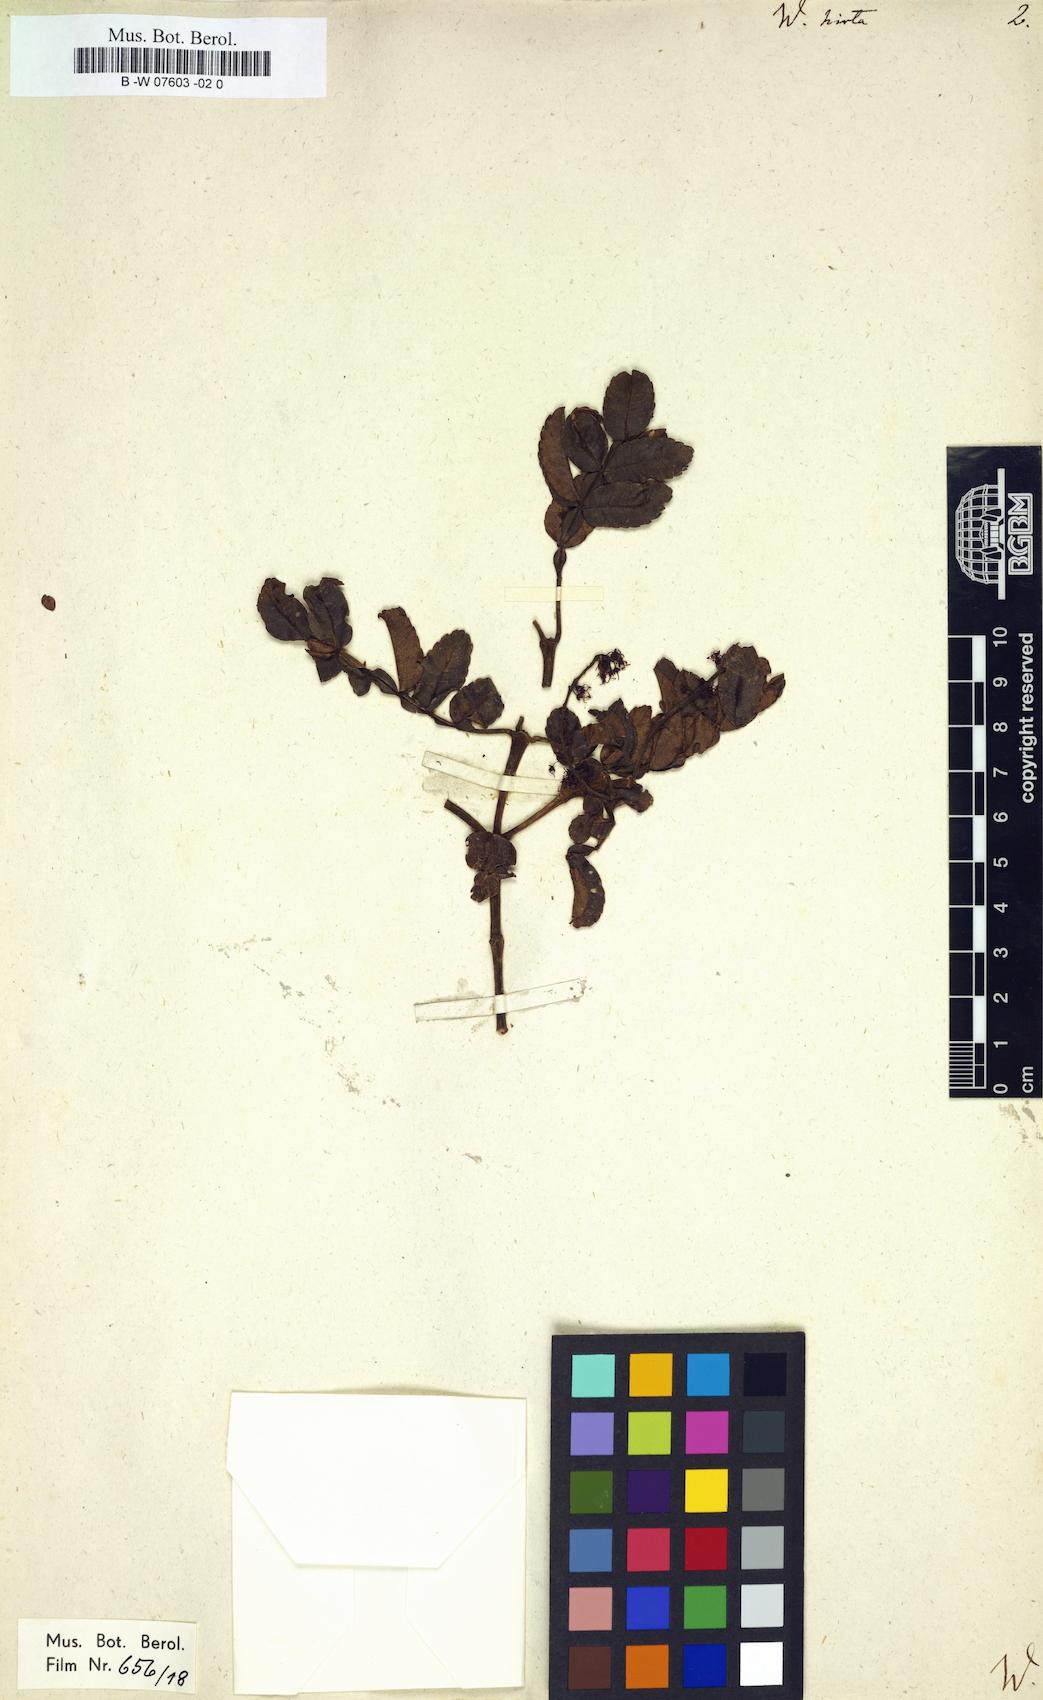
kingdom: Plantae
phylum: Tracheophyta
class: Magnoliopsida
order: Oxalidales
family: Cunoniaceae
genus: Weinmannia
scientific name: Weinmannia pinnata
